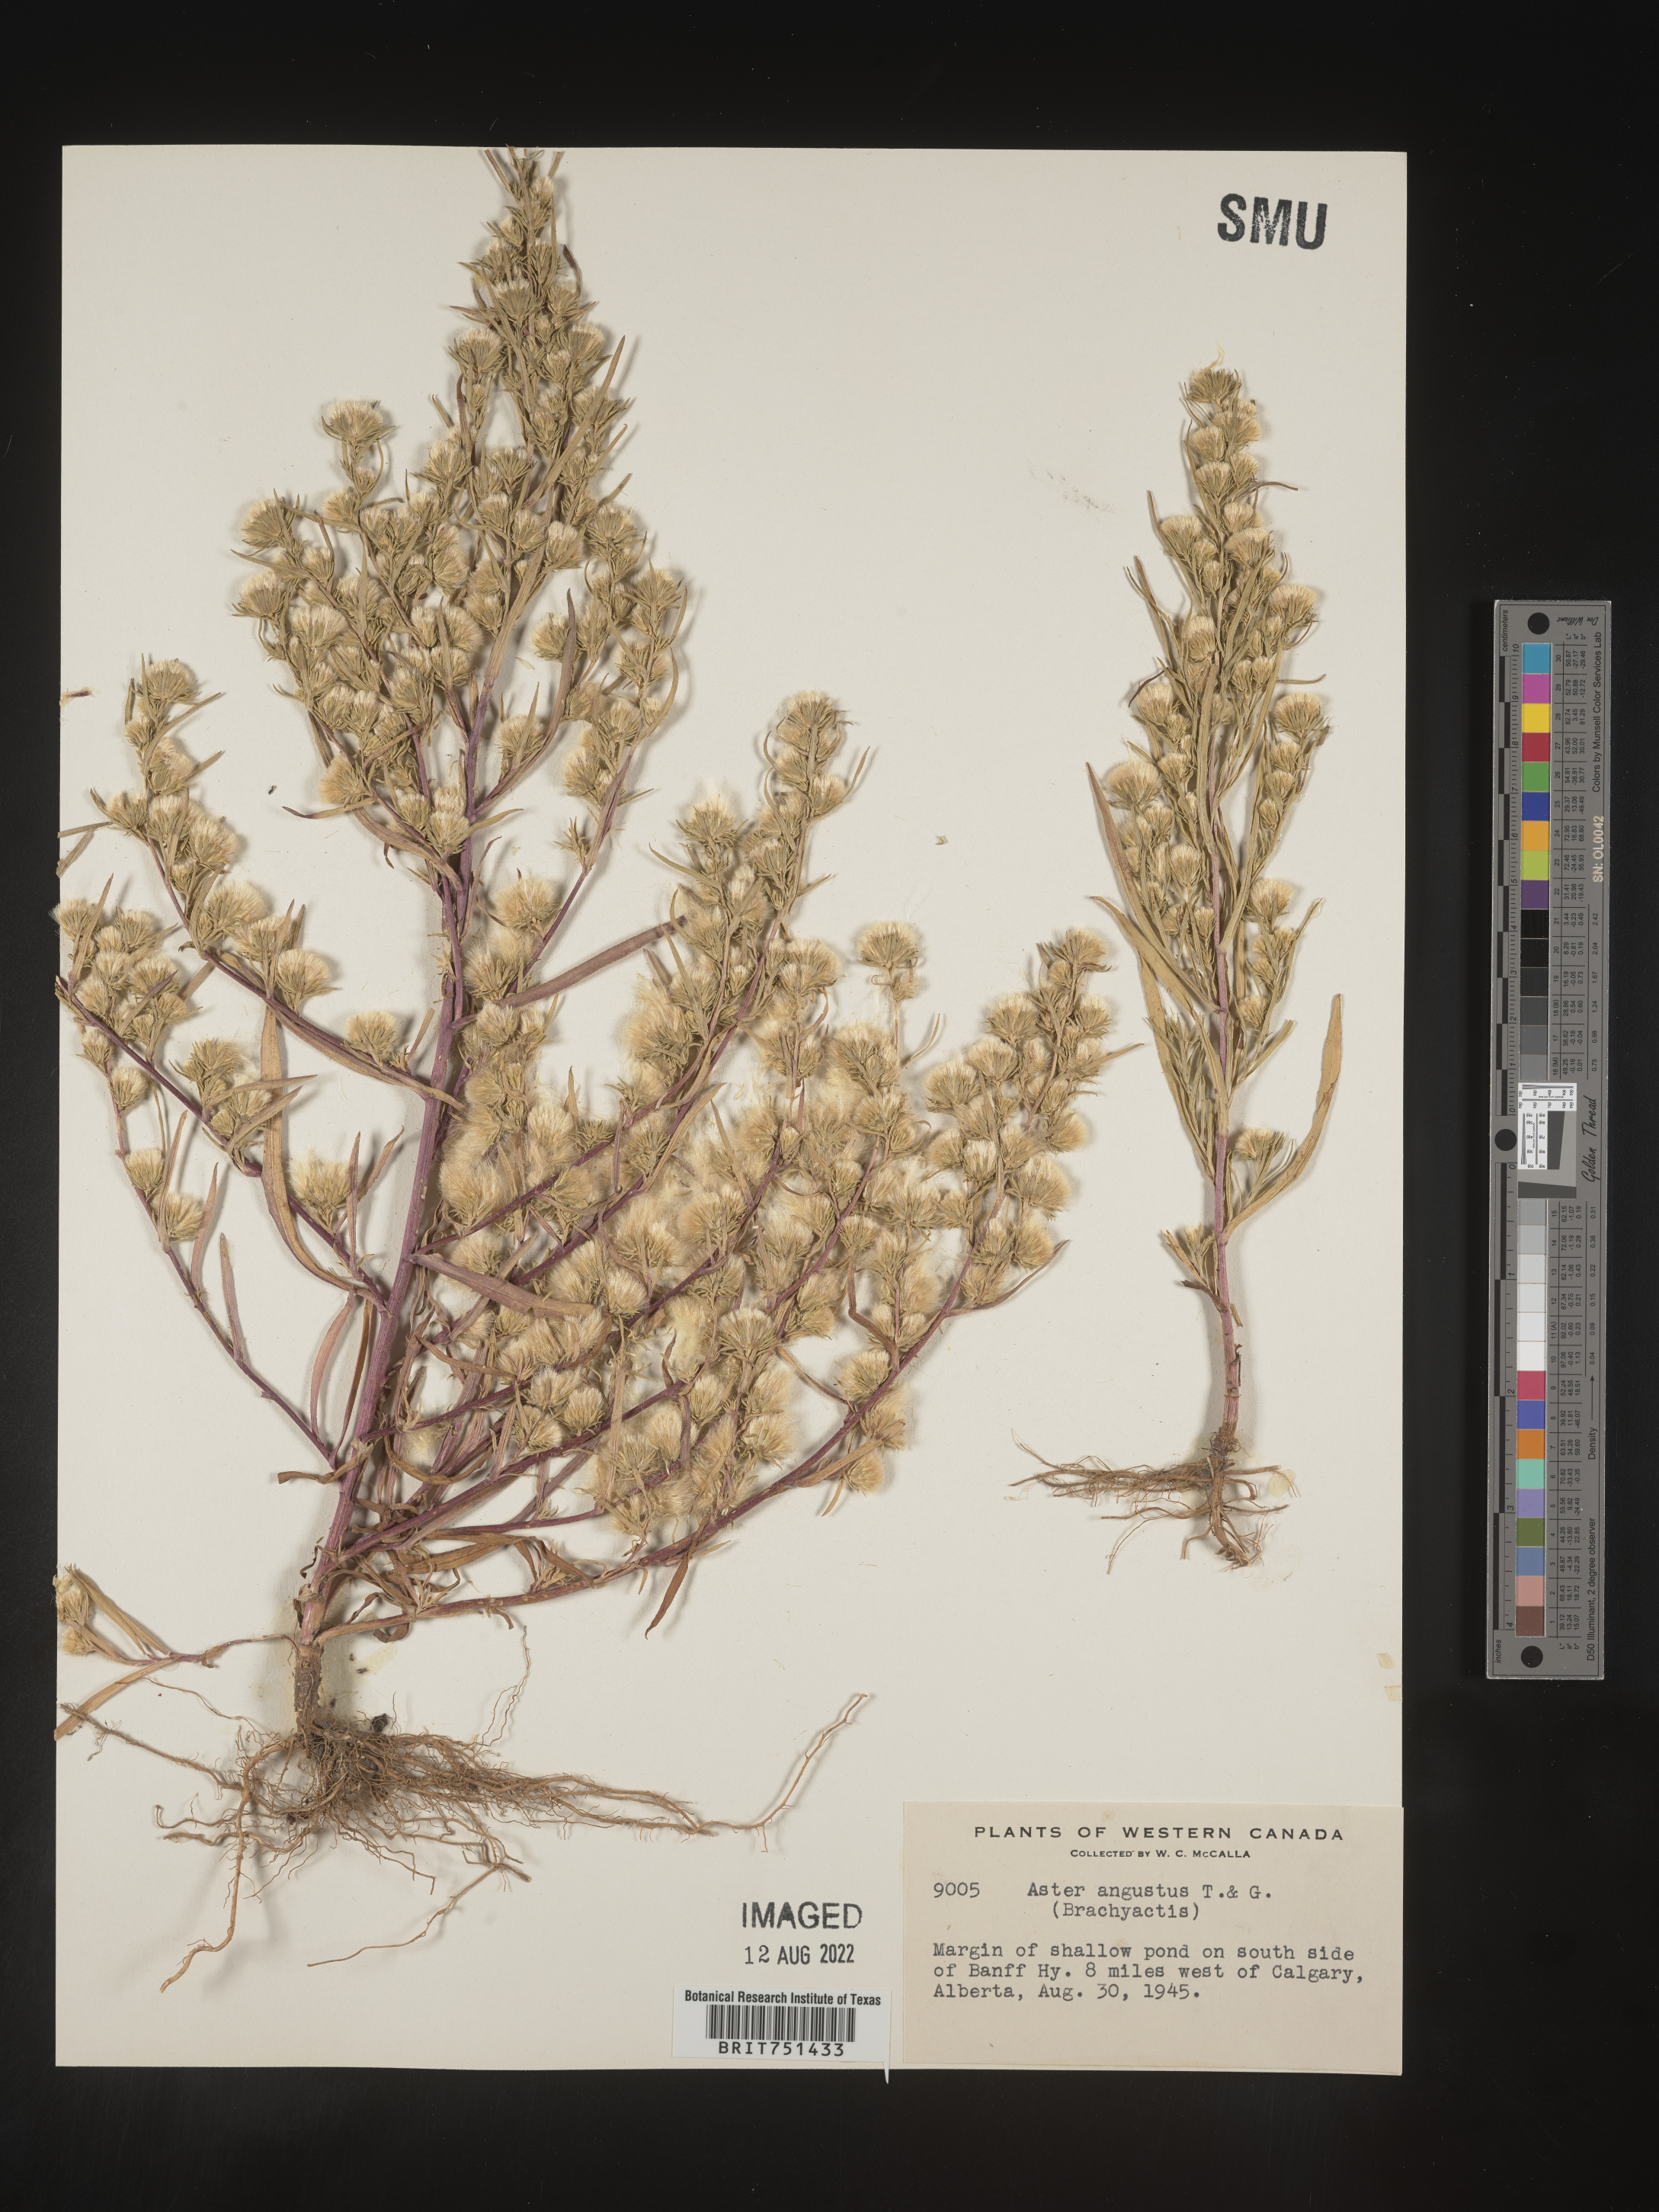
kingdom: Plantae
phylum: Tracheophyta
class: Magnoliopsida
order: Asterales
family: Asteraceae
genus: Symphyotrichum
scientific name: Symphyotrichum ciliatum
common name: Rayless annual aster
